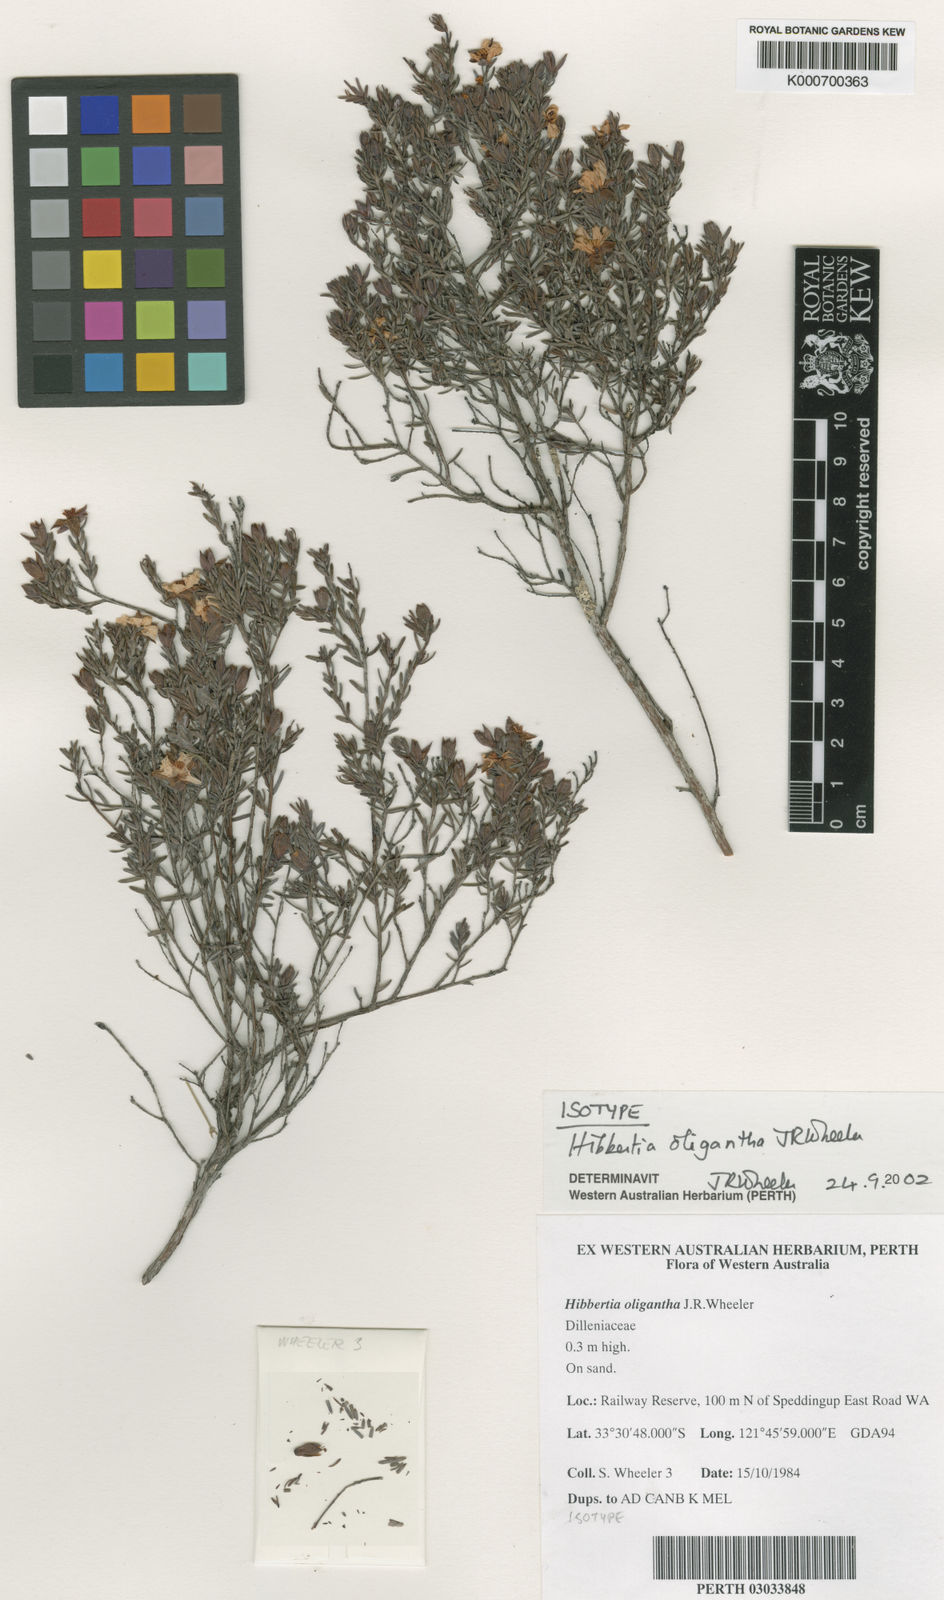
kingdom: Plantae
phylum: Tracheophyta
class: Magnoliopsida
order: Dilleniales
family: Dilleniaceae
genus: Hibbertia
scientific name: Hibbertia oligantha
